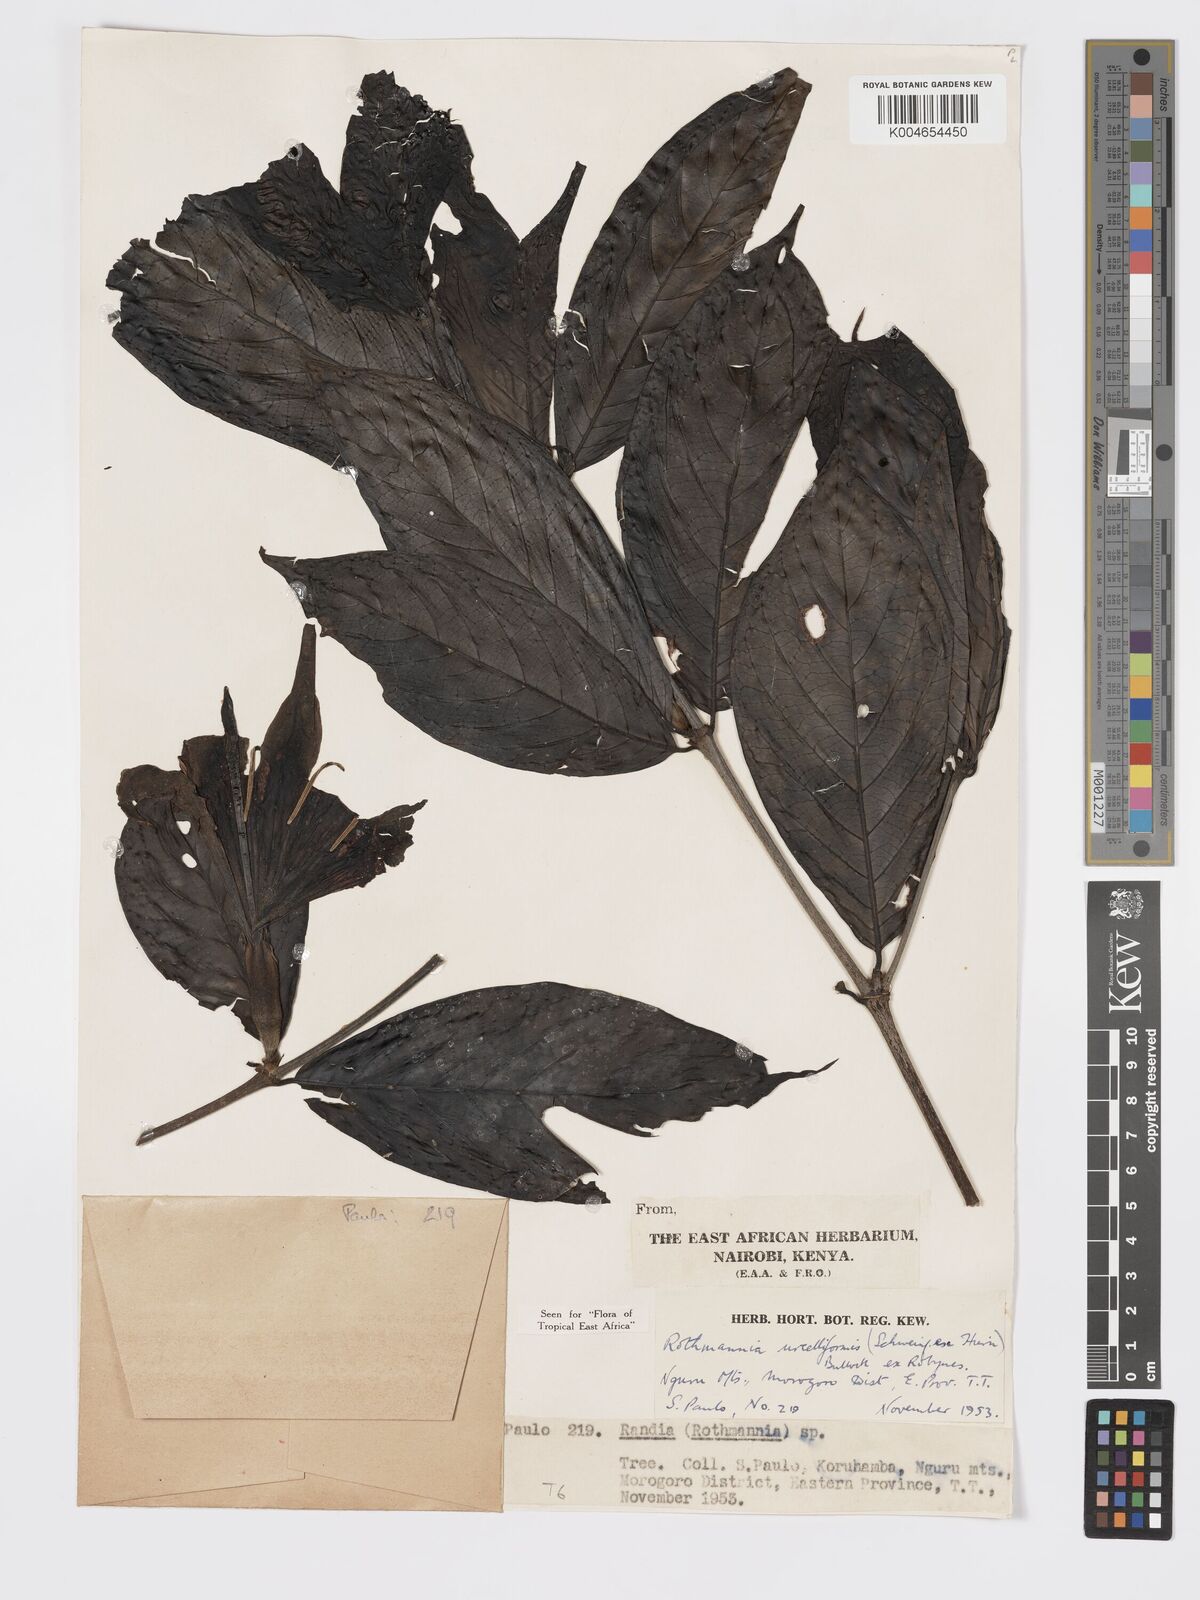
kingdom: Plantae
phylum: Tracheophyta
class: Magnoliopsida
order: Gentianales
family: Rubiaceae
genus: Rothmannia
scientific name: Rothmannia urcelliformis
